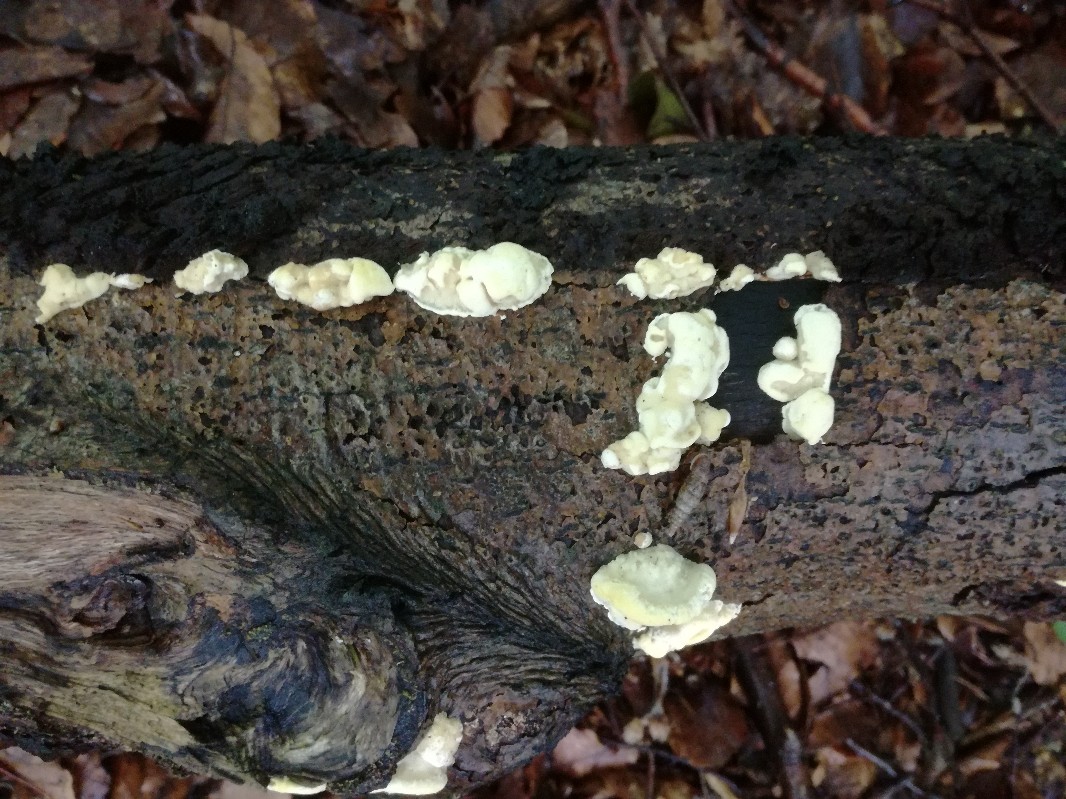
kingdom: Fungi
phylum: Basidiomycota
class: Agaricomycetes
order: Polyporales
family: Steccherinaceae
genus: Antrodiella
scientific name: Antrodiella serpula
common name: gulrandet elastikporesvamp
